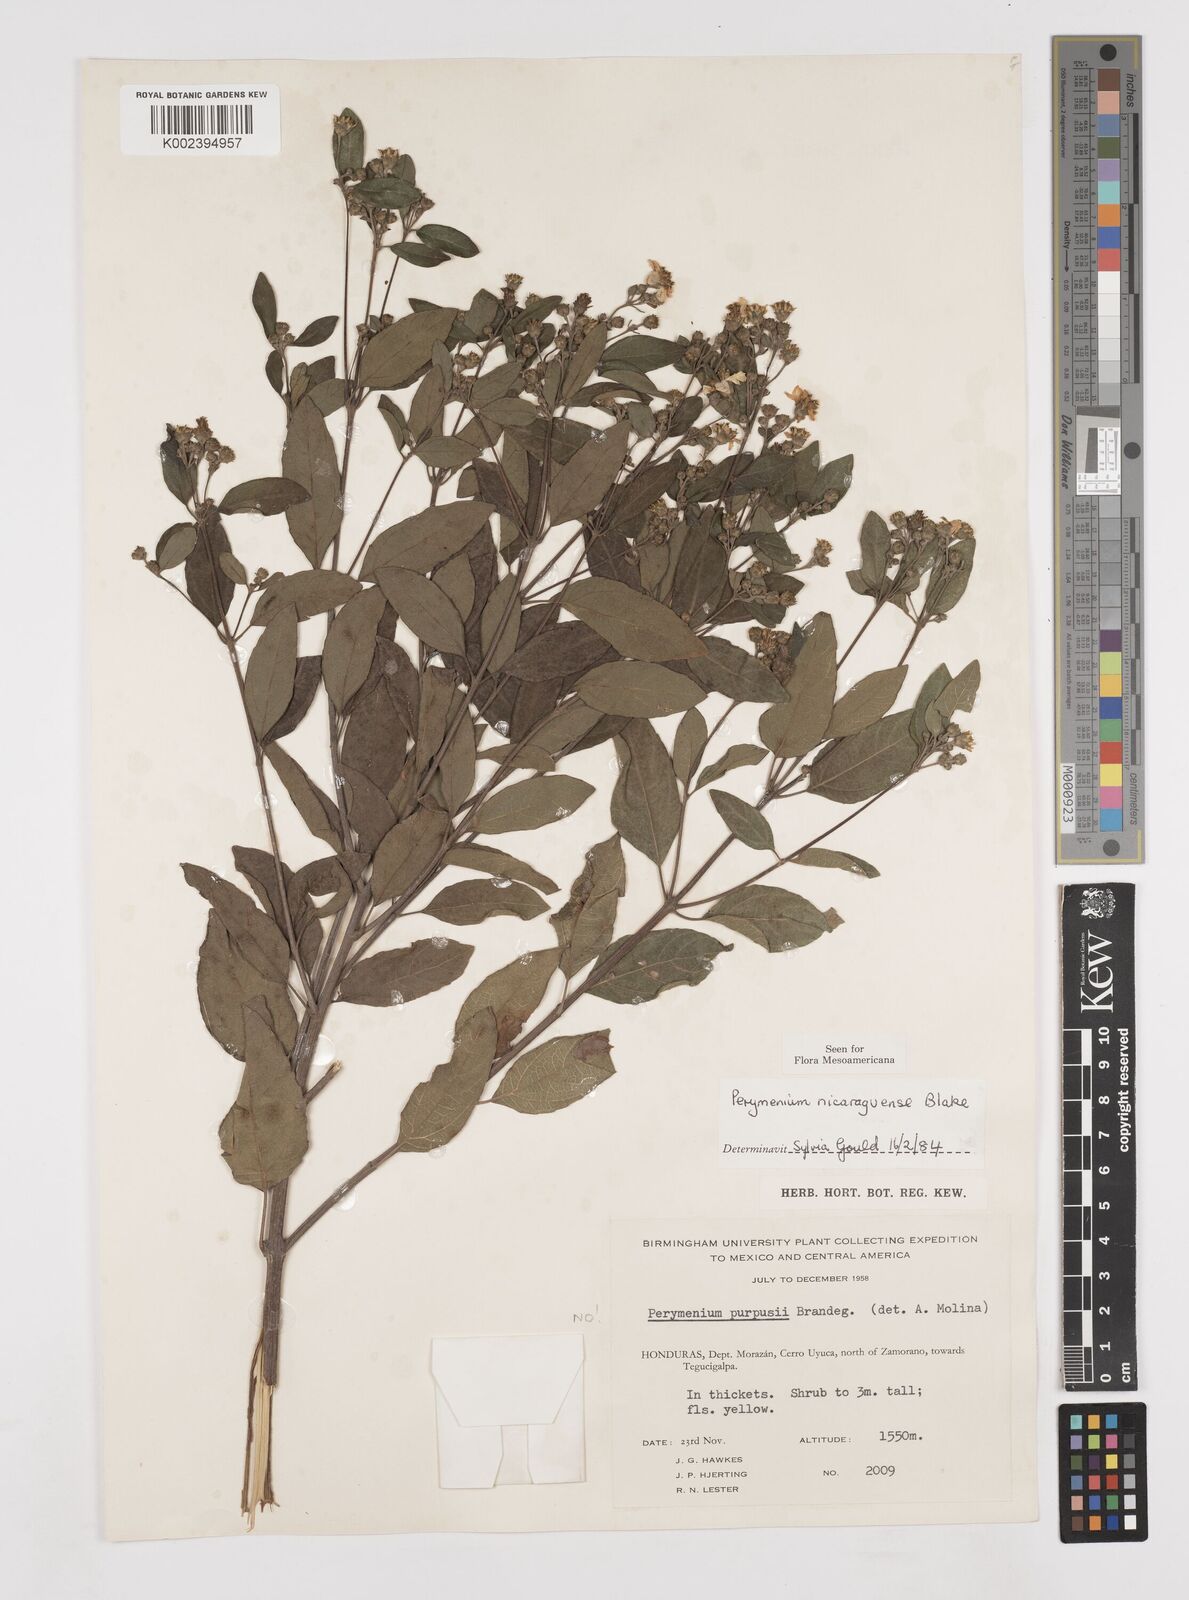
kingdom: Plantae
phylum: Tracheophyta
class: Magnoliopsida
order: Asterales
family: Asteraceae
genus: Perymenium
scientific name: Perymenium nicaraguense
